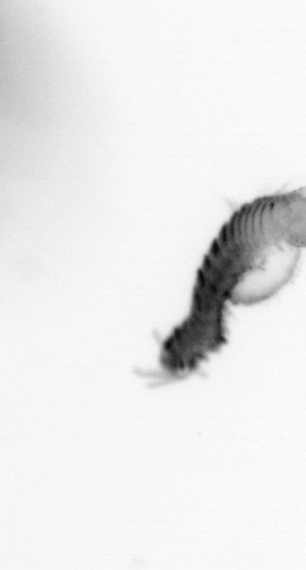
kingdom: Animalia
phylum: Annelida
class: Polychaeta
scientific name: Polychaeta
